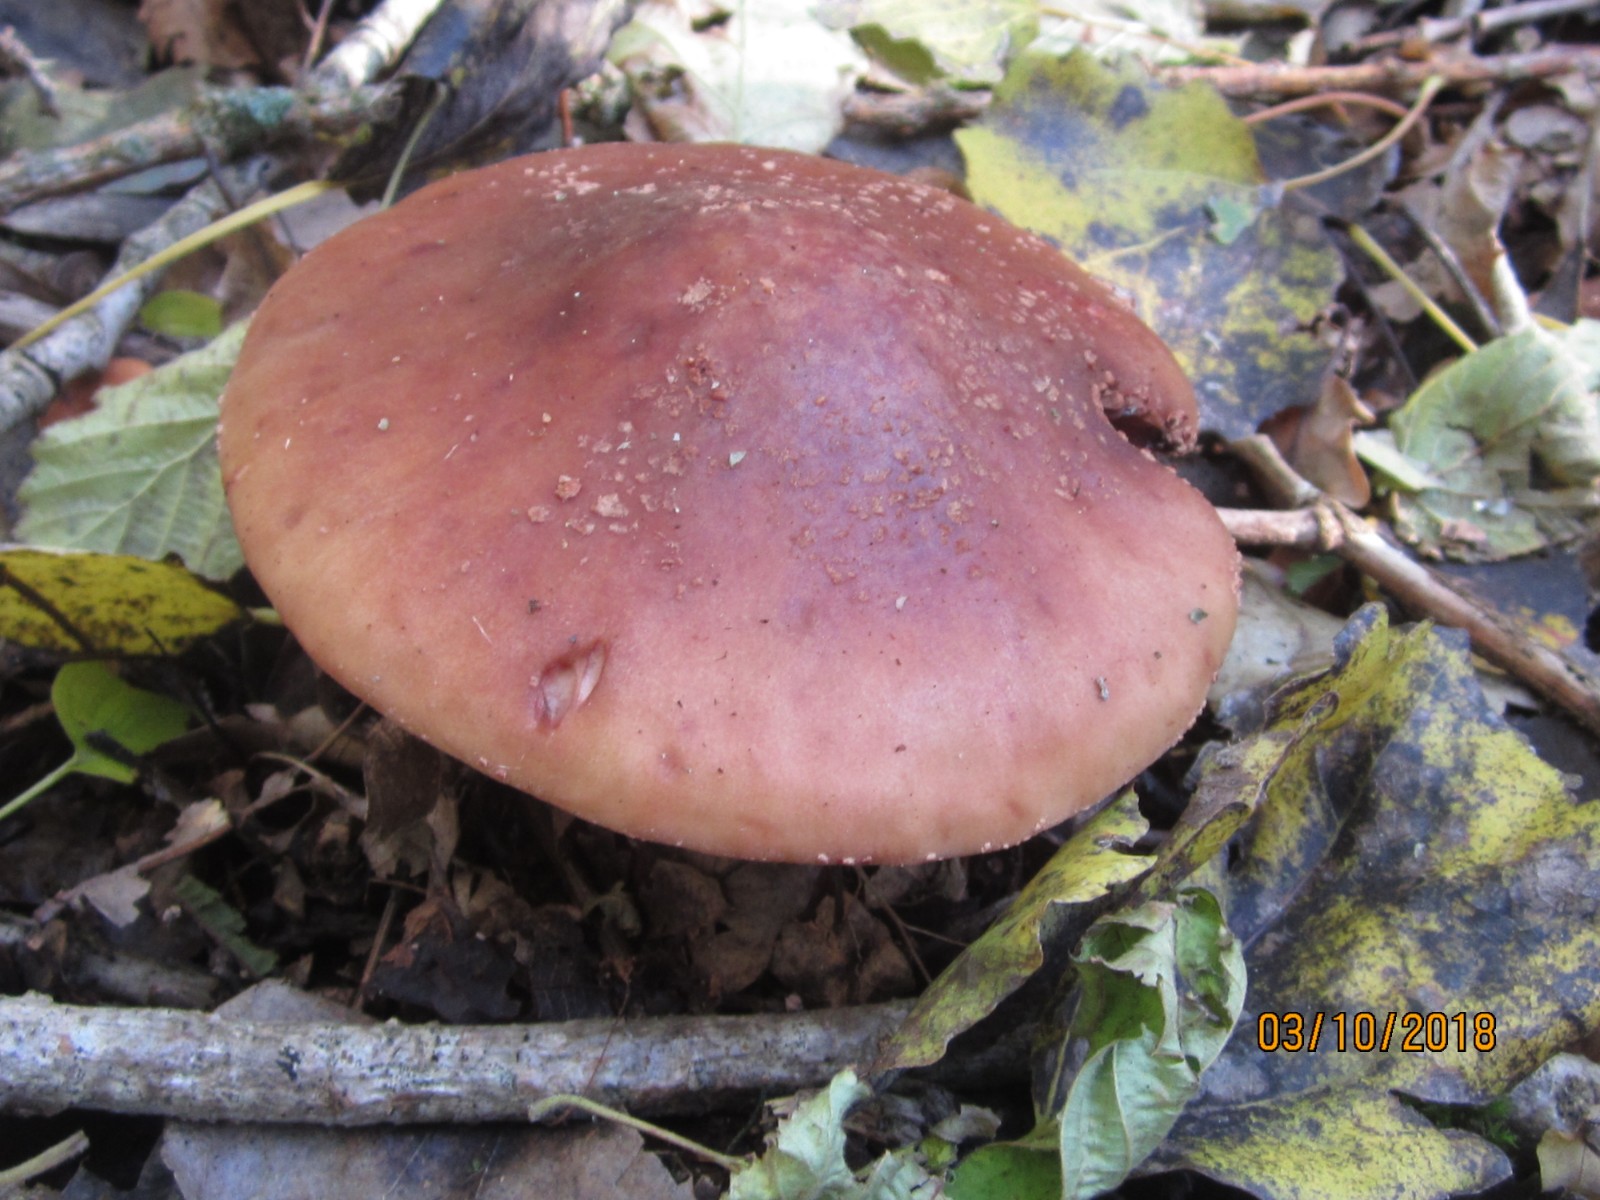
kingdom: Fungi
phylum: Basidiomycota
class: Agaricomycetes
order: Agaricales
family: Amanitaceae
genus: Amanita
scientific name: Amanita rubescens
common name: rødmende fluesvamp
